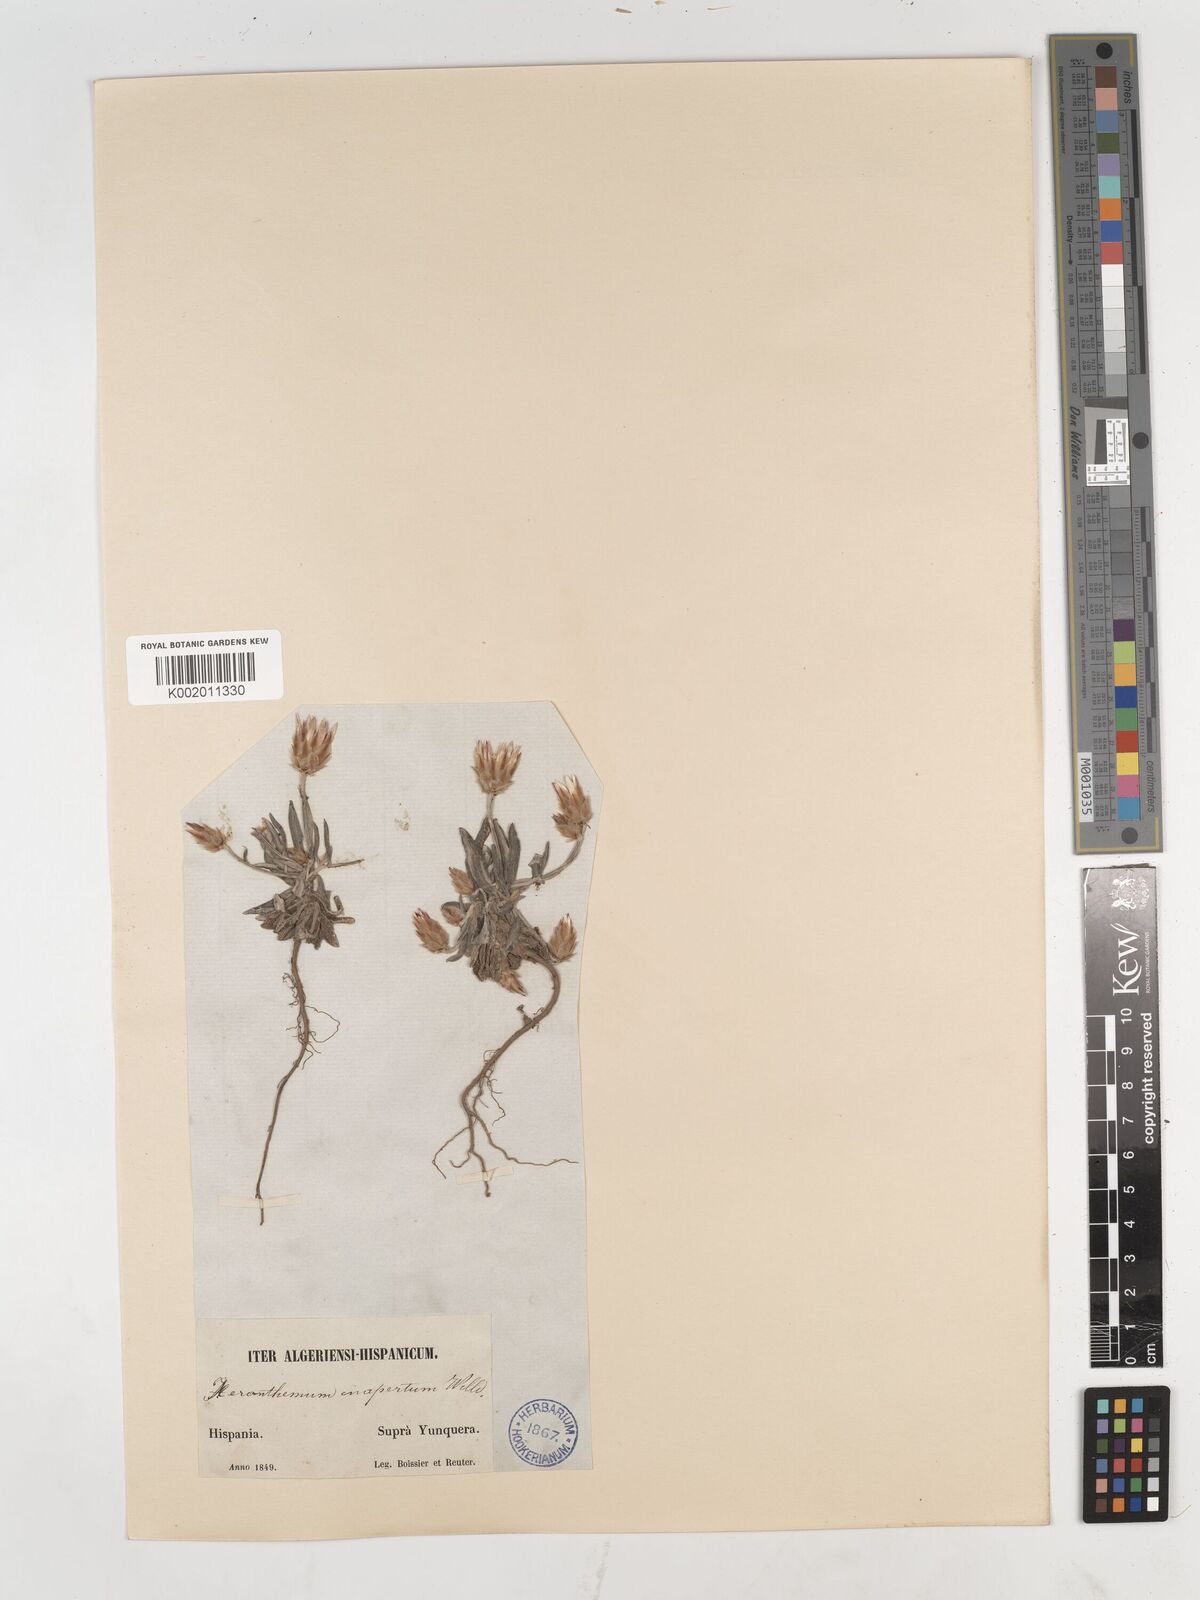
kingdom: Plantae
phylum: Tracheophyta
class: Magnoliopsida
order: Asterales
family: Asteraceae
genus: Xeranthemum
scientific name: Xeranthemum inapertum
